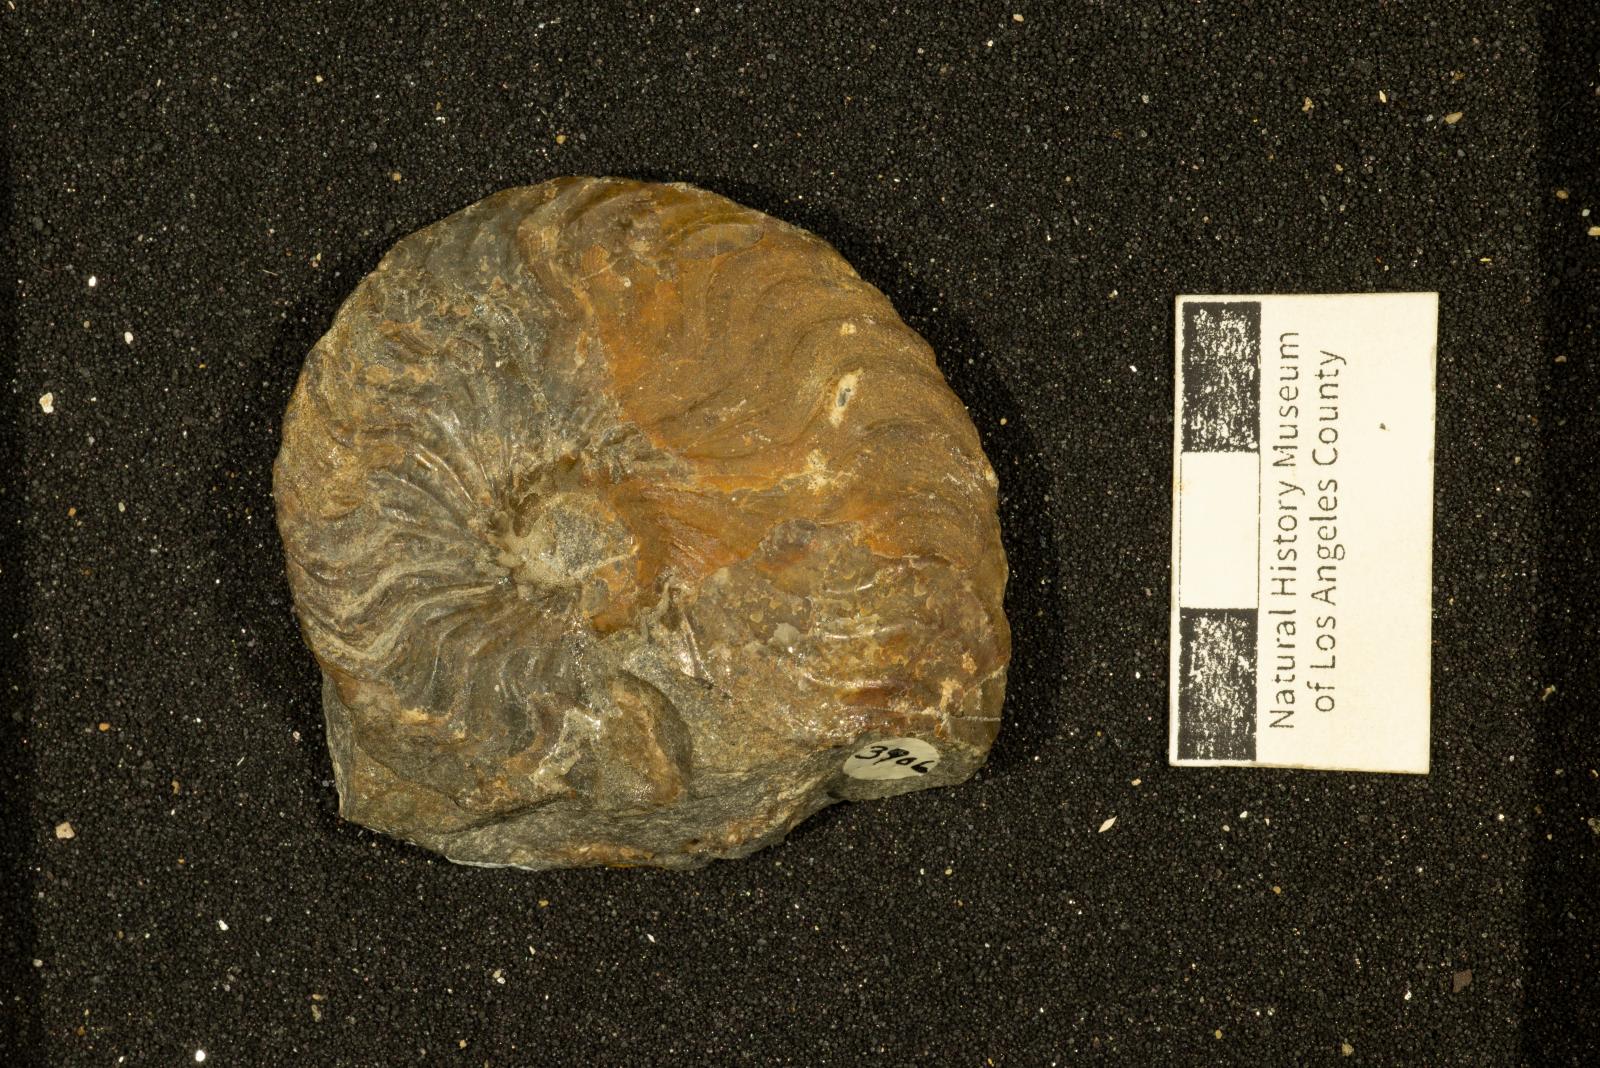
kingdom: Animalia
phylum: Mollusca
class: Cephalopoda
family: Placenticeratidae
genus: Metaplacenticeras
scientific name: Metaplacenticeras Placenticeras sanctaemonicae
